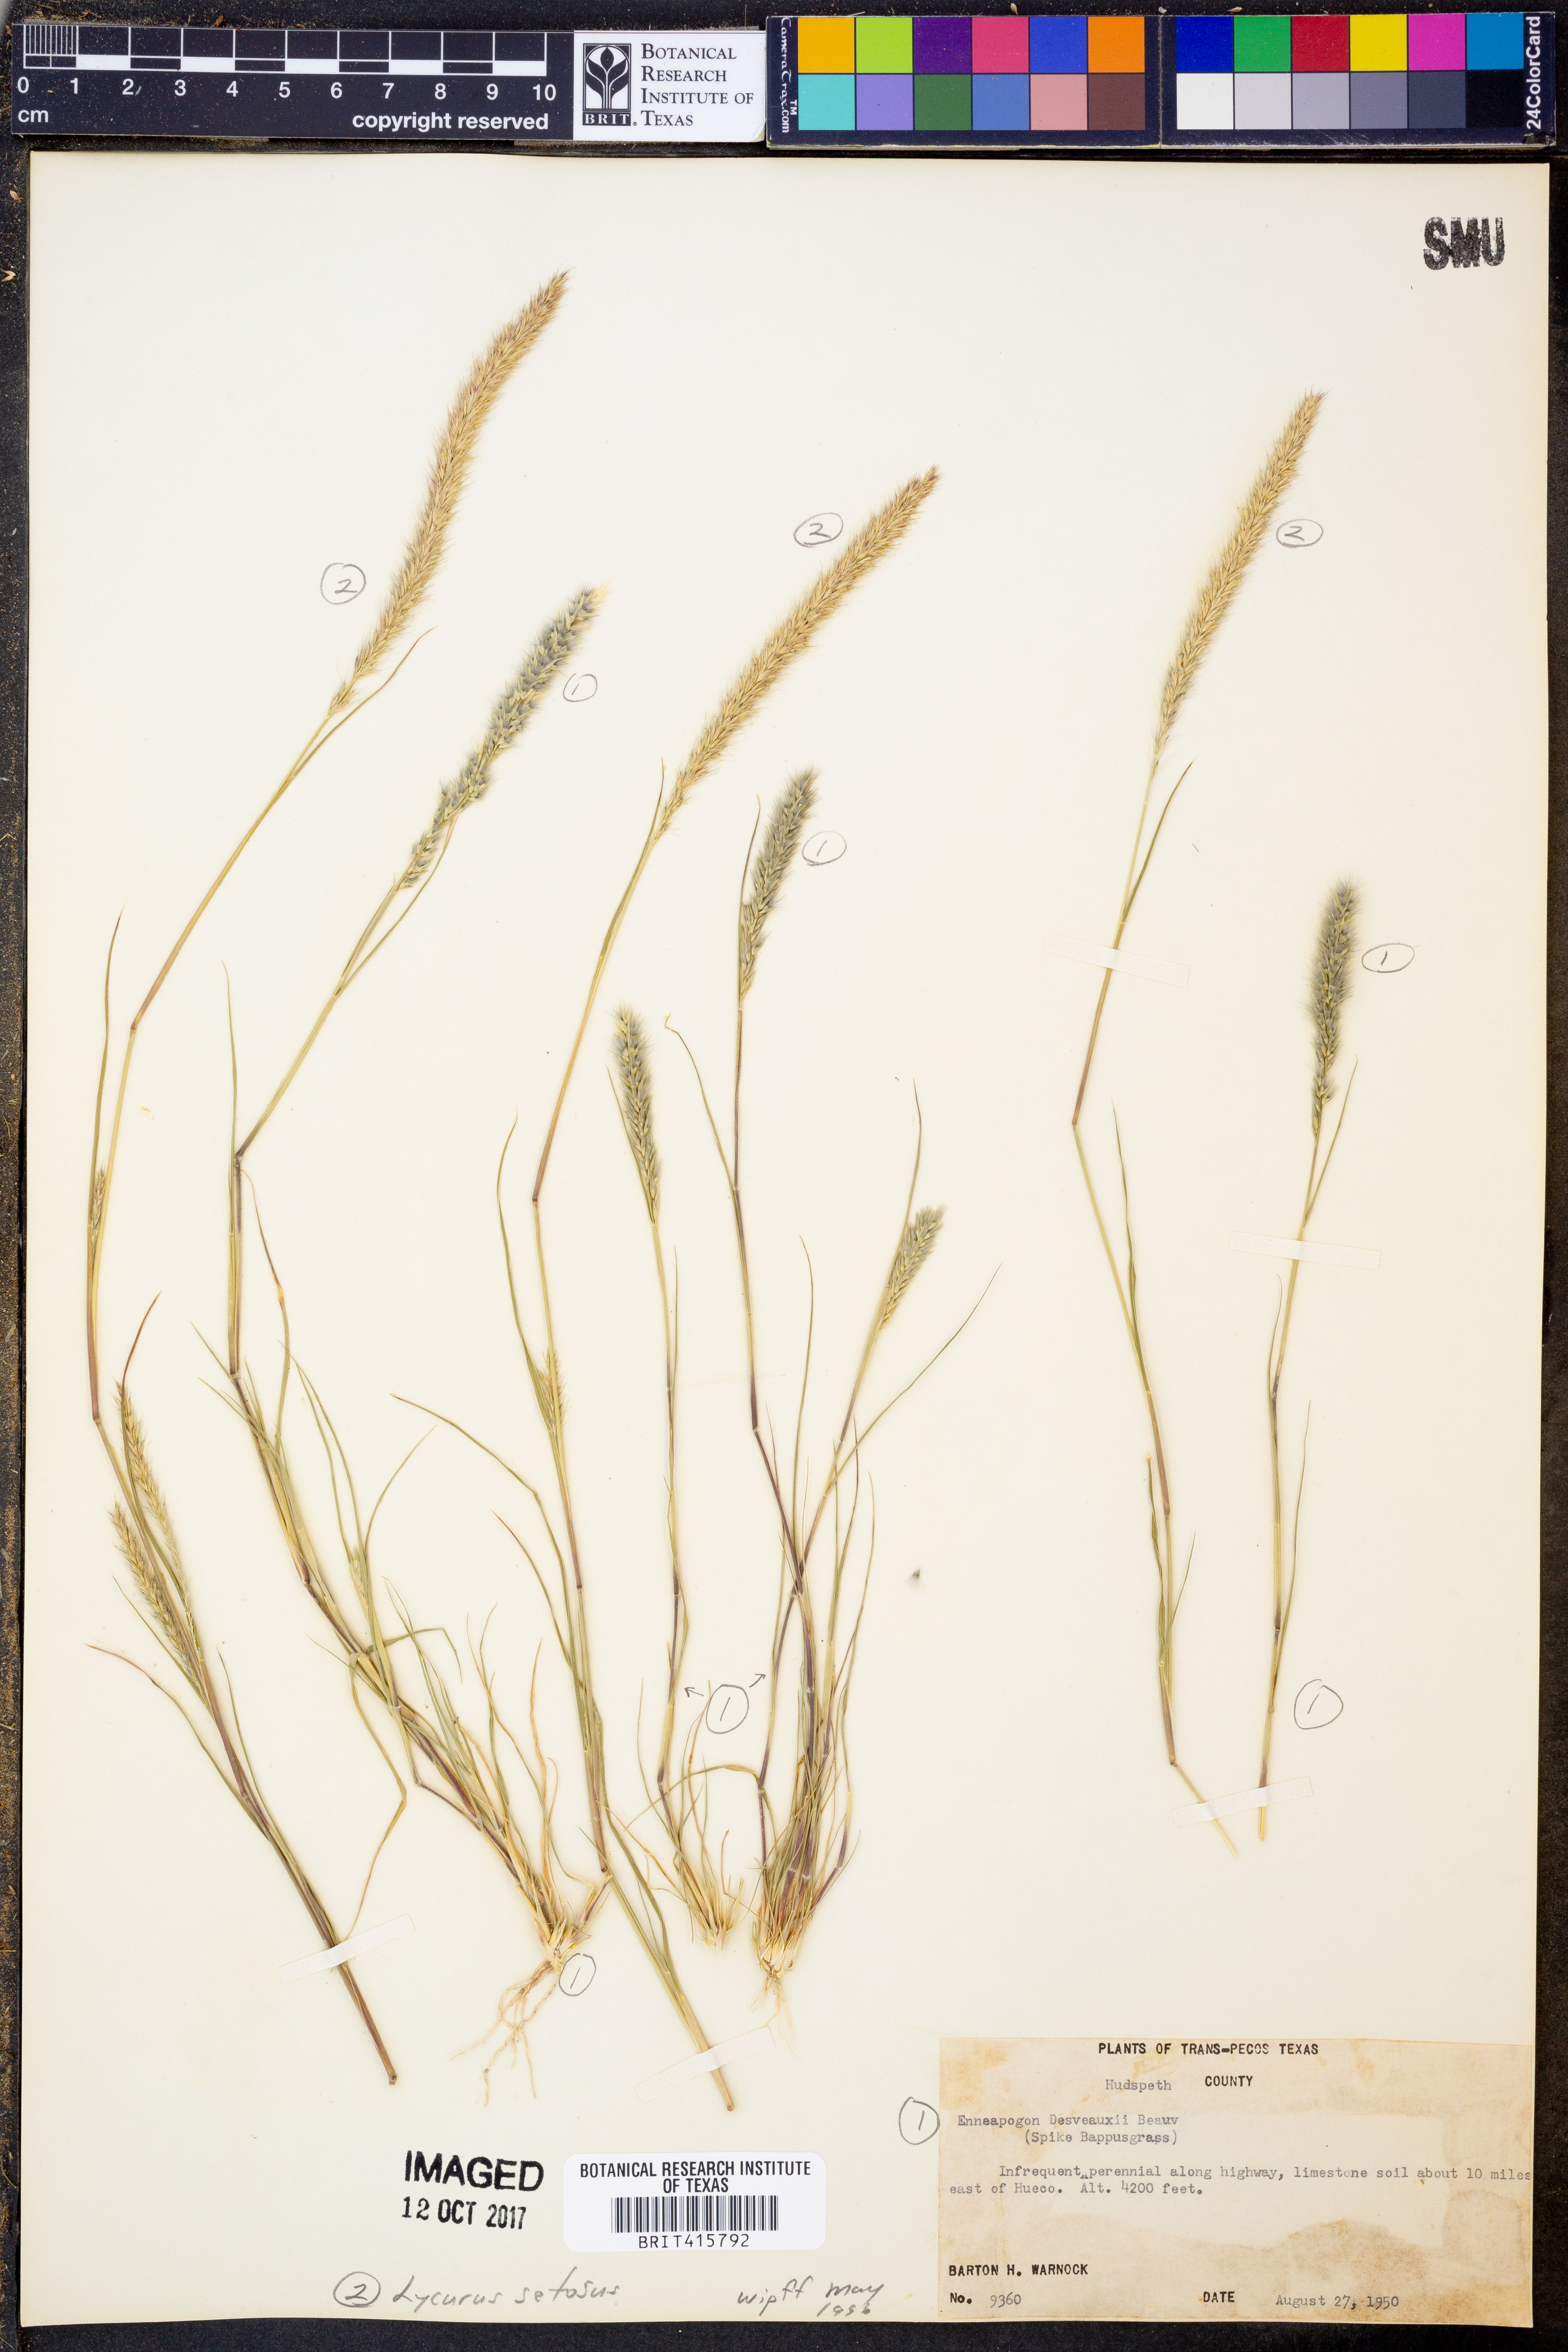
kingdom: Plantae
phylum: Tracheophyta
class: Liliopsida
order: Poales
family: Poaceae
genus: Enneapogon
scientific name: Enneapogon desvauxii
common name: Feather pappus grass
